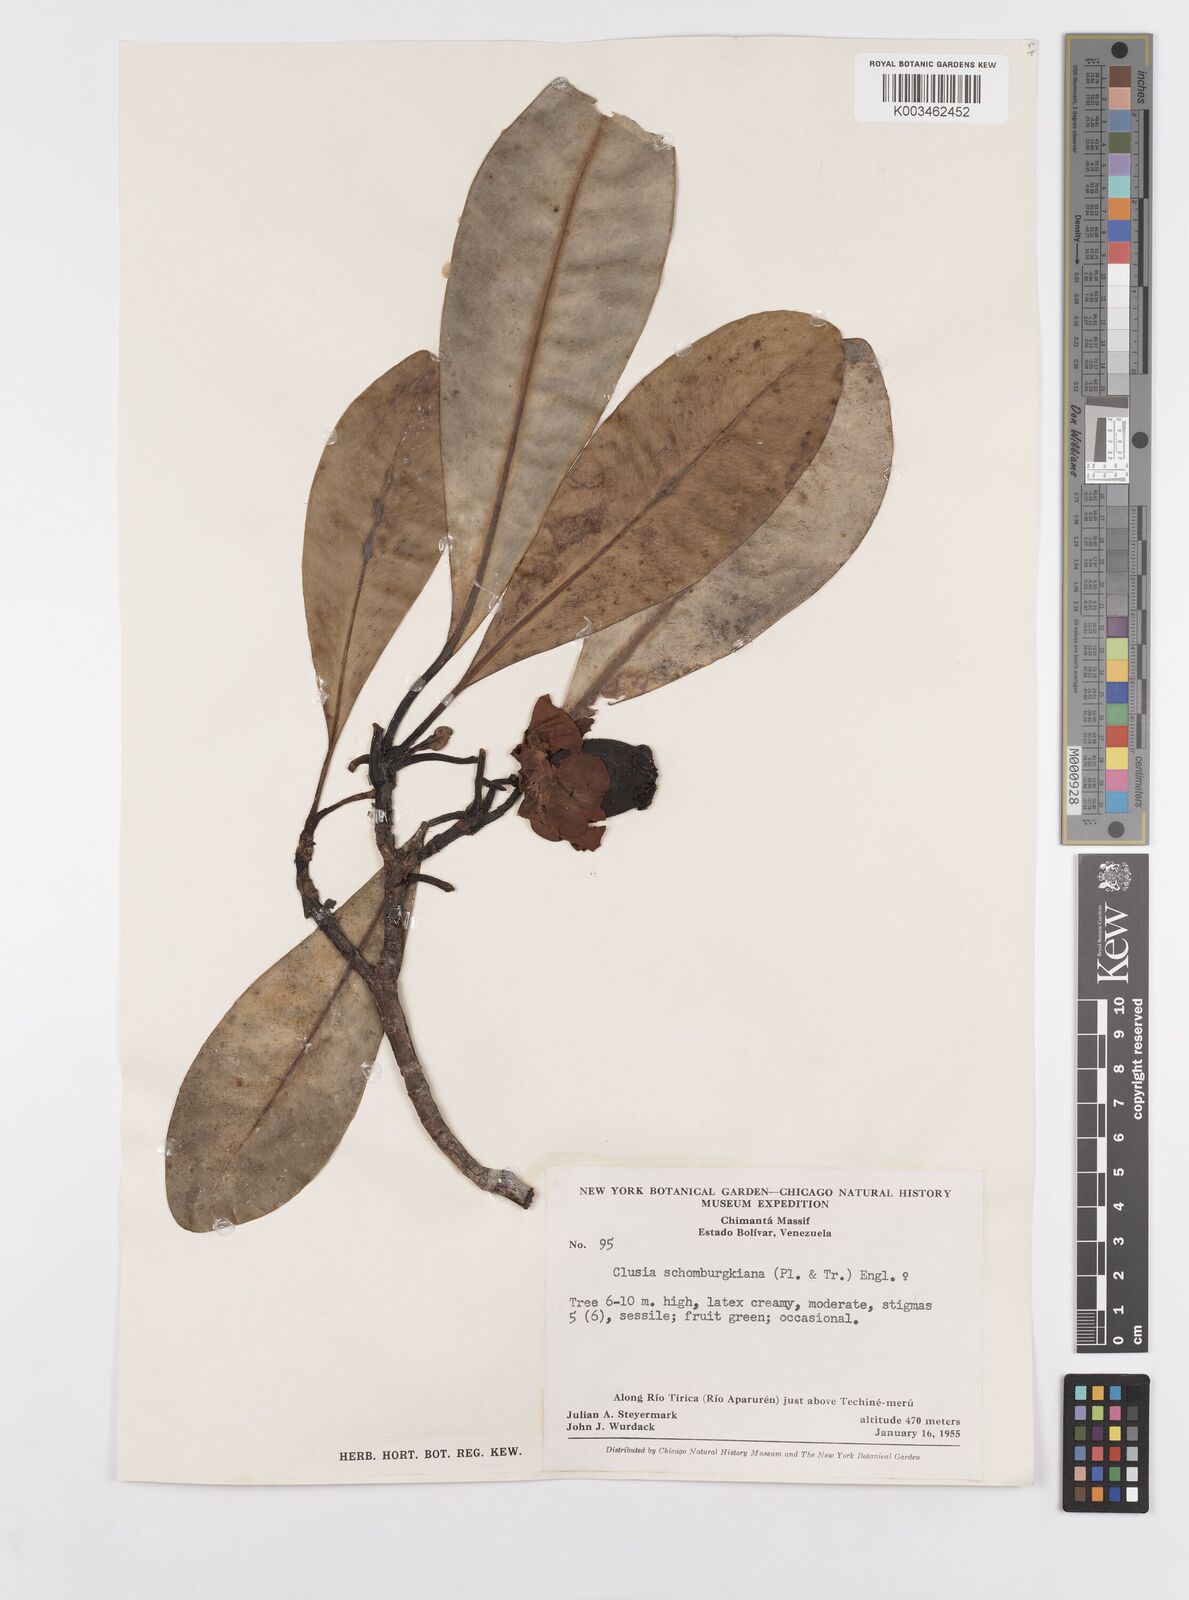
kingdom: Plantae
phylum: Tracheophyta
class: Magnoliopsida
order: Malpighiales
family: Clusiaceae
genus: Clusia
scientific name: Clusia schomburgkiana
